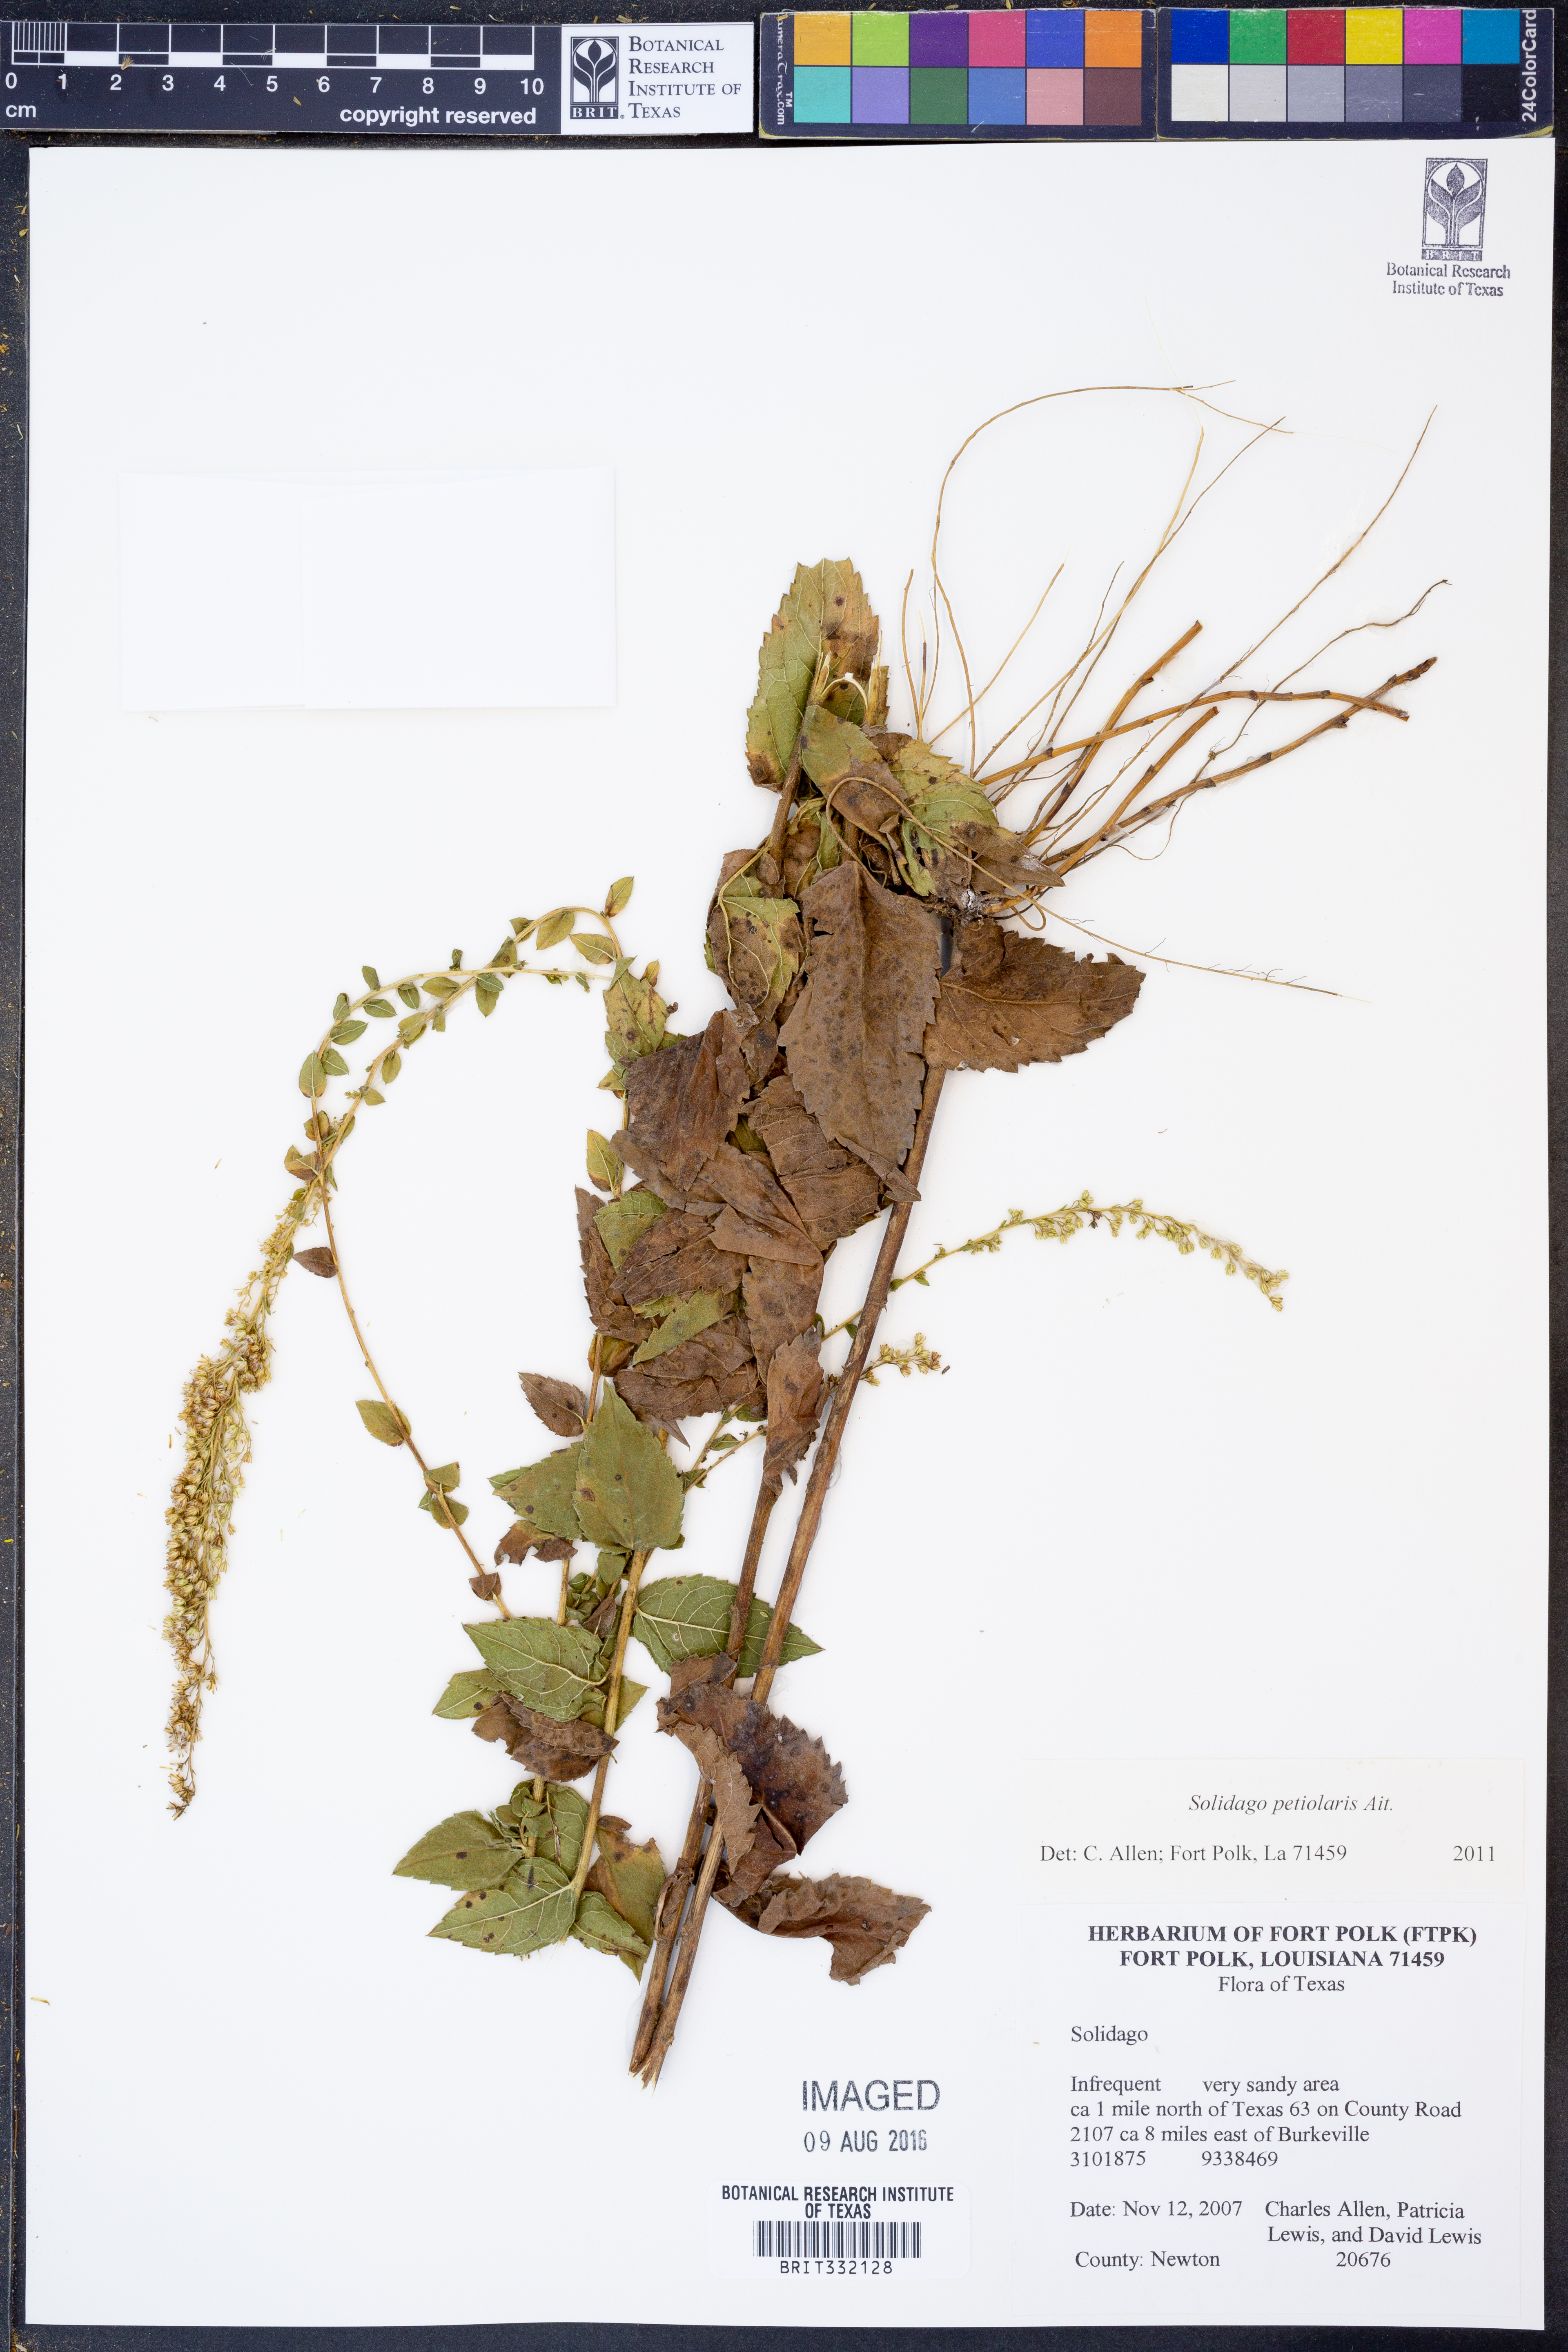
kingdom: Plantae
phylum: Tracheophyta
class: Magnoliopsida
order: Asterales
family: Asteraceae
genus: Solidago
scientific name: Solidago petiolaris
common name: Downy ragged goldenrod
